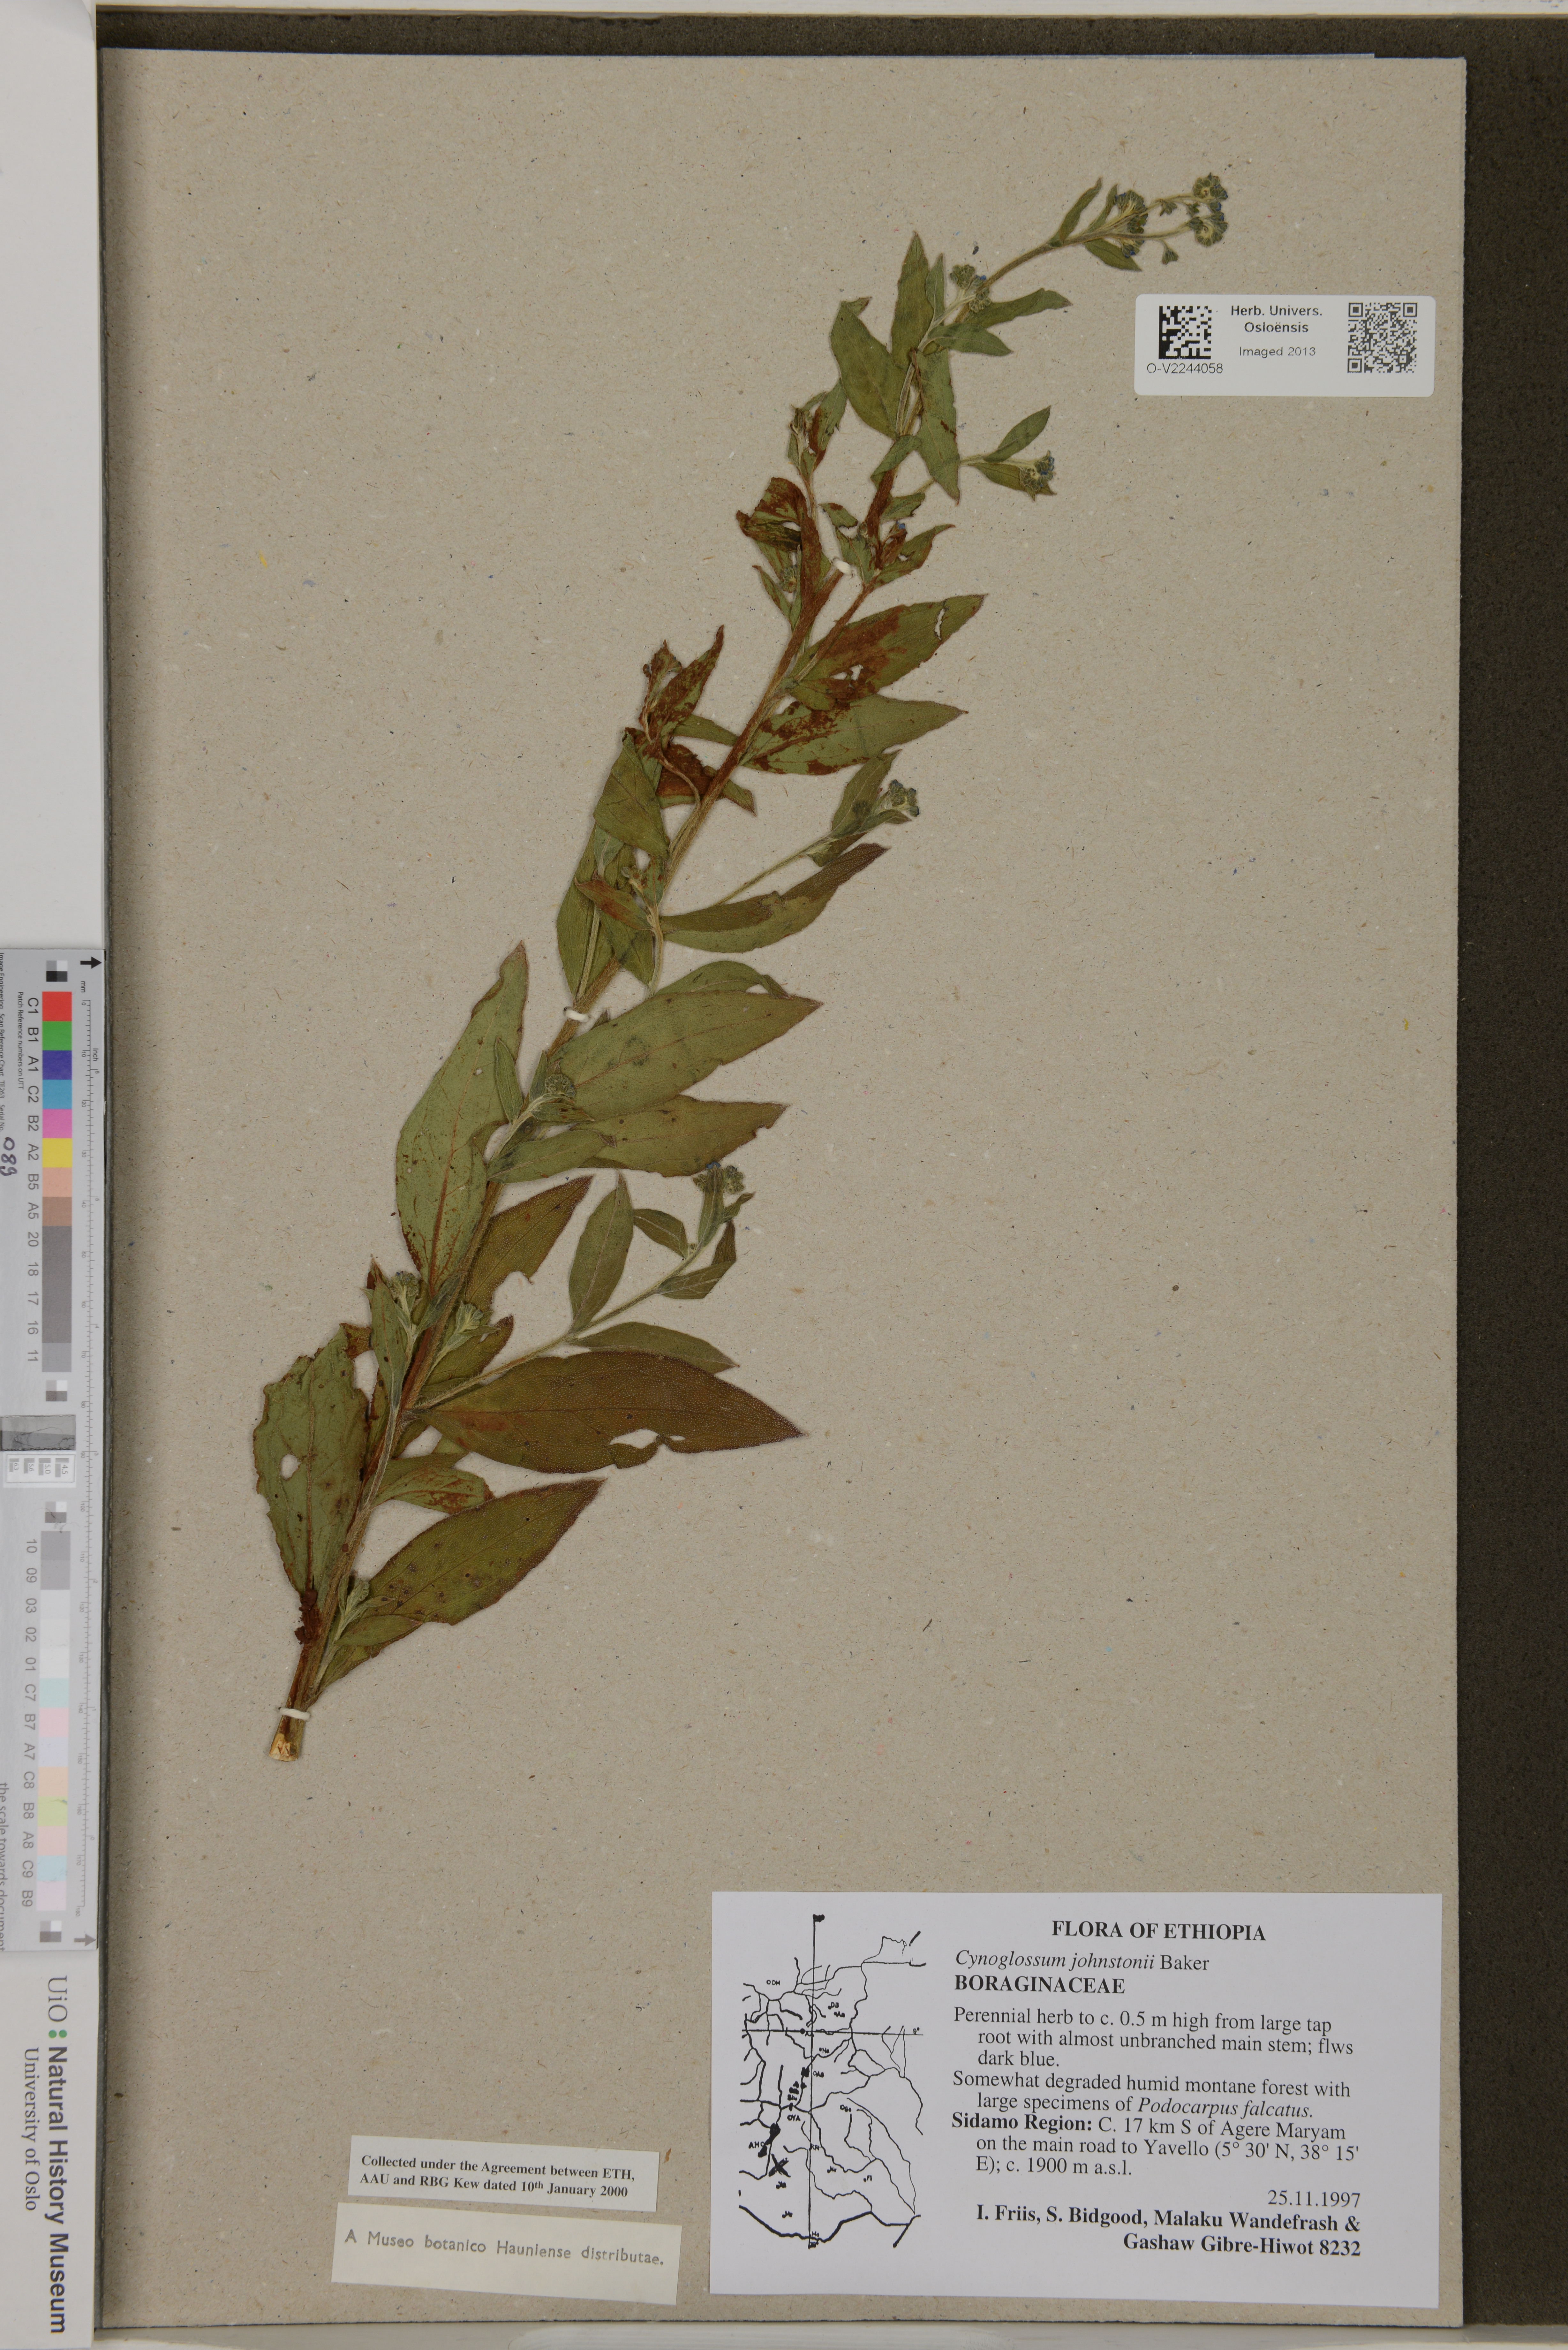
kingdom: Plantae
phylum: Tracheophyta
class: Magnoliopsida
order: Boraginales
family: Boraginaceae
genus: Paracynoglossum
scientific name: Paracynoglossum afrocaeruleum
